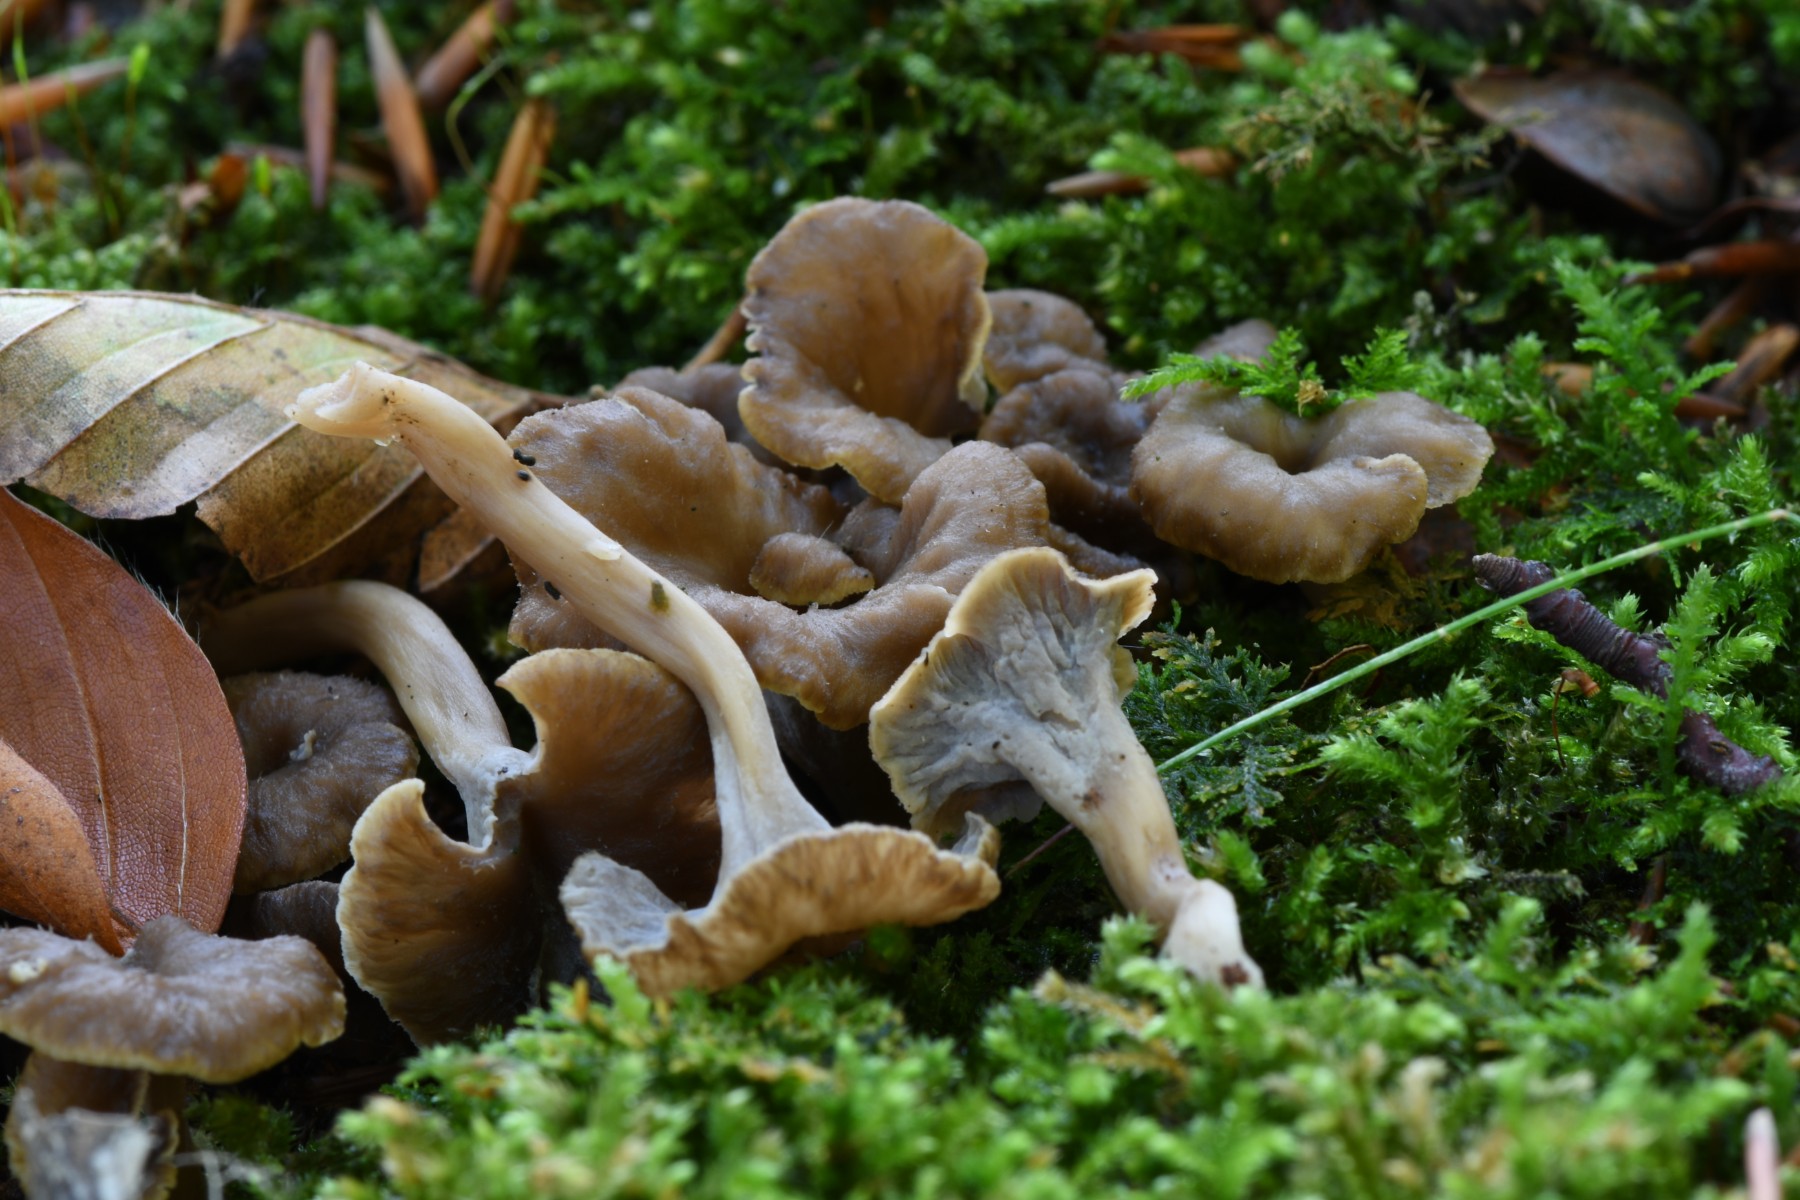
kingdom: Fungi
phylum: Basidiomycota
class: Agaricomycetes
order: Cantharellales
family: Hydnaceae
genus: Craterellus
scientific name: Craterellus undulatus
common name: liden kantarel
